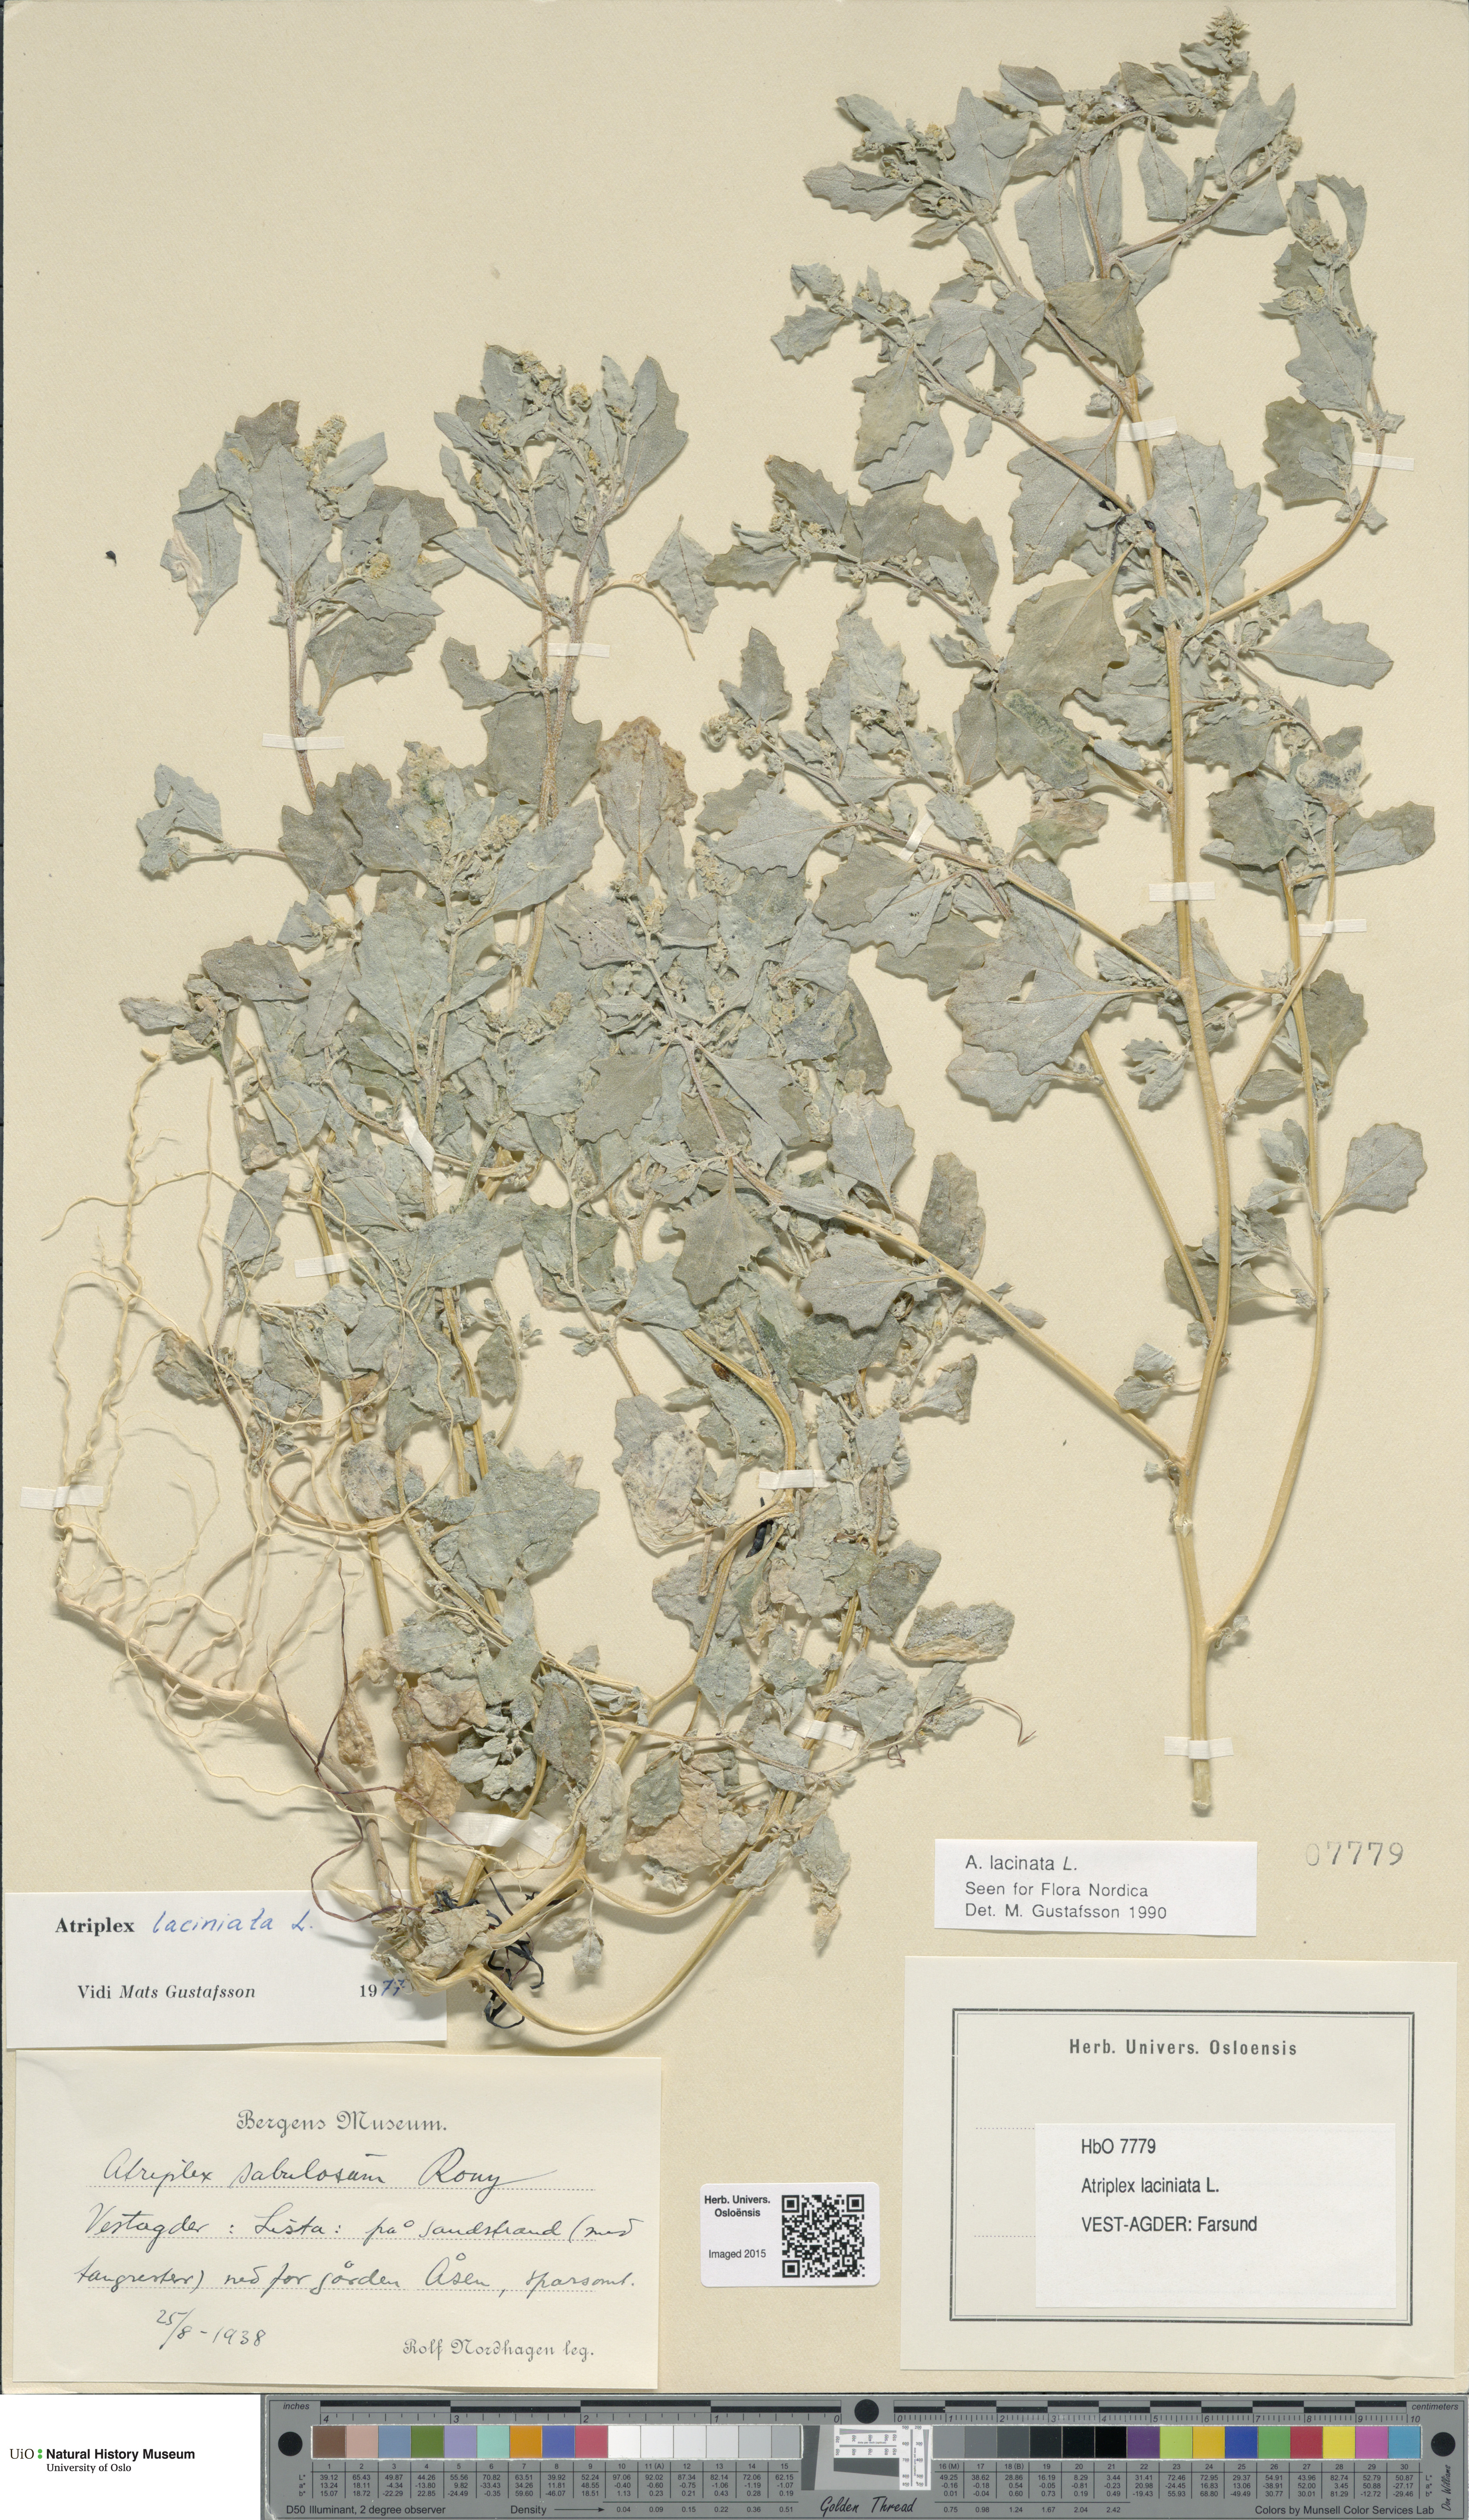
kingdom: Plantae
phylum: Tracheophyta
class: Magnoliopsida
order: Caryophyllales
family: Amaranthaceae
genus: Atriplex
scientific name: Atriplex laciniata
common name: Frosted orache
